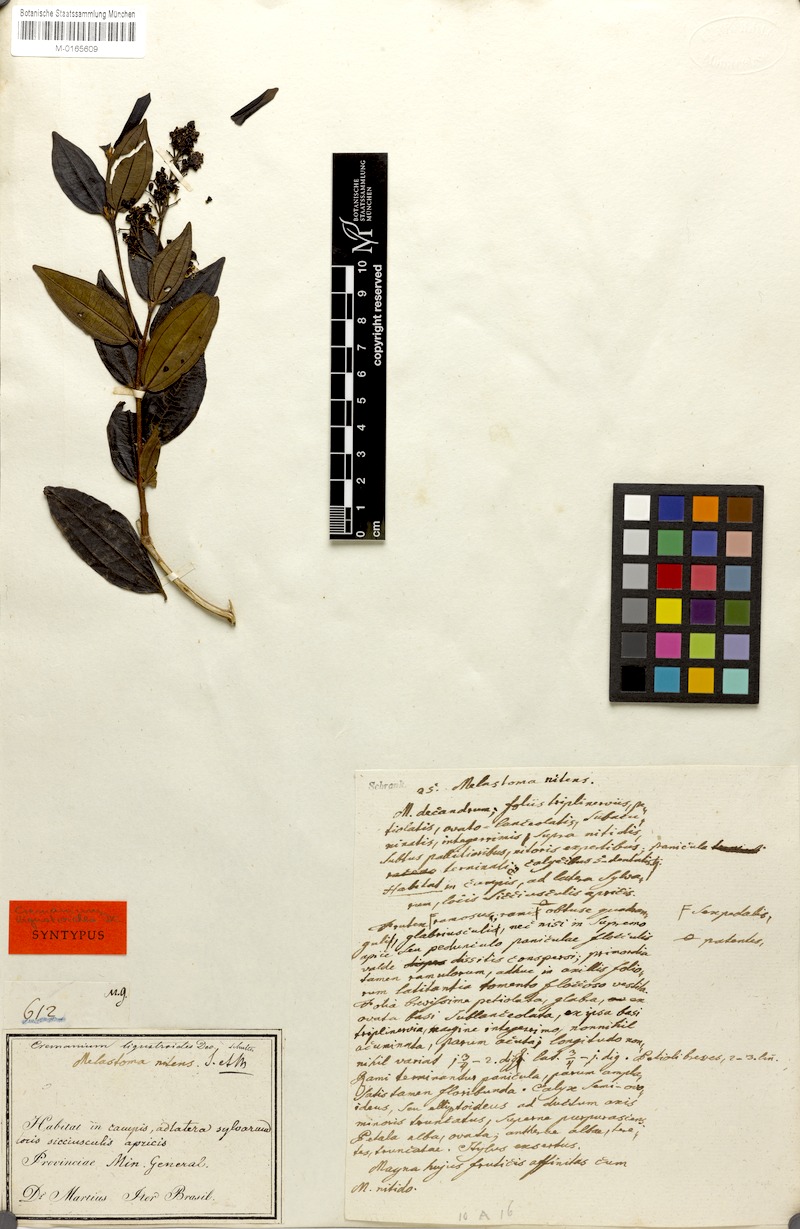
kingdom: Plantae
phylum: Tracheophyta
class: Magnoliopsida
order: Myrtales
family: Melastomataceae
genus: Miconia
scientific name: Miconia ligustroides
